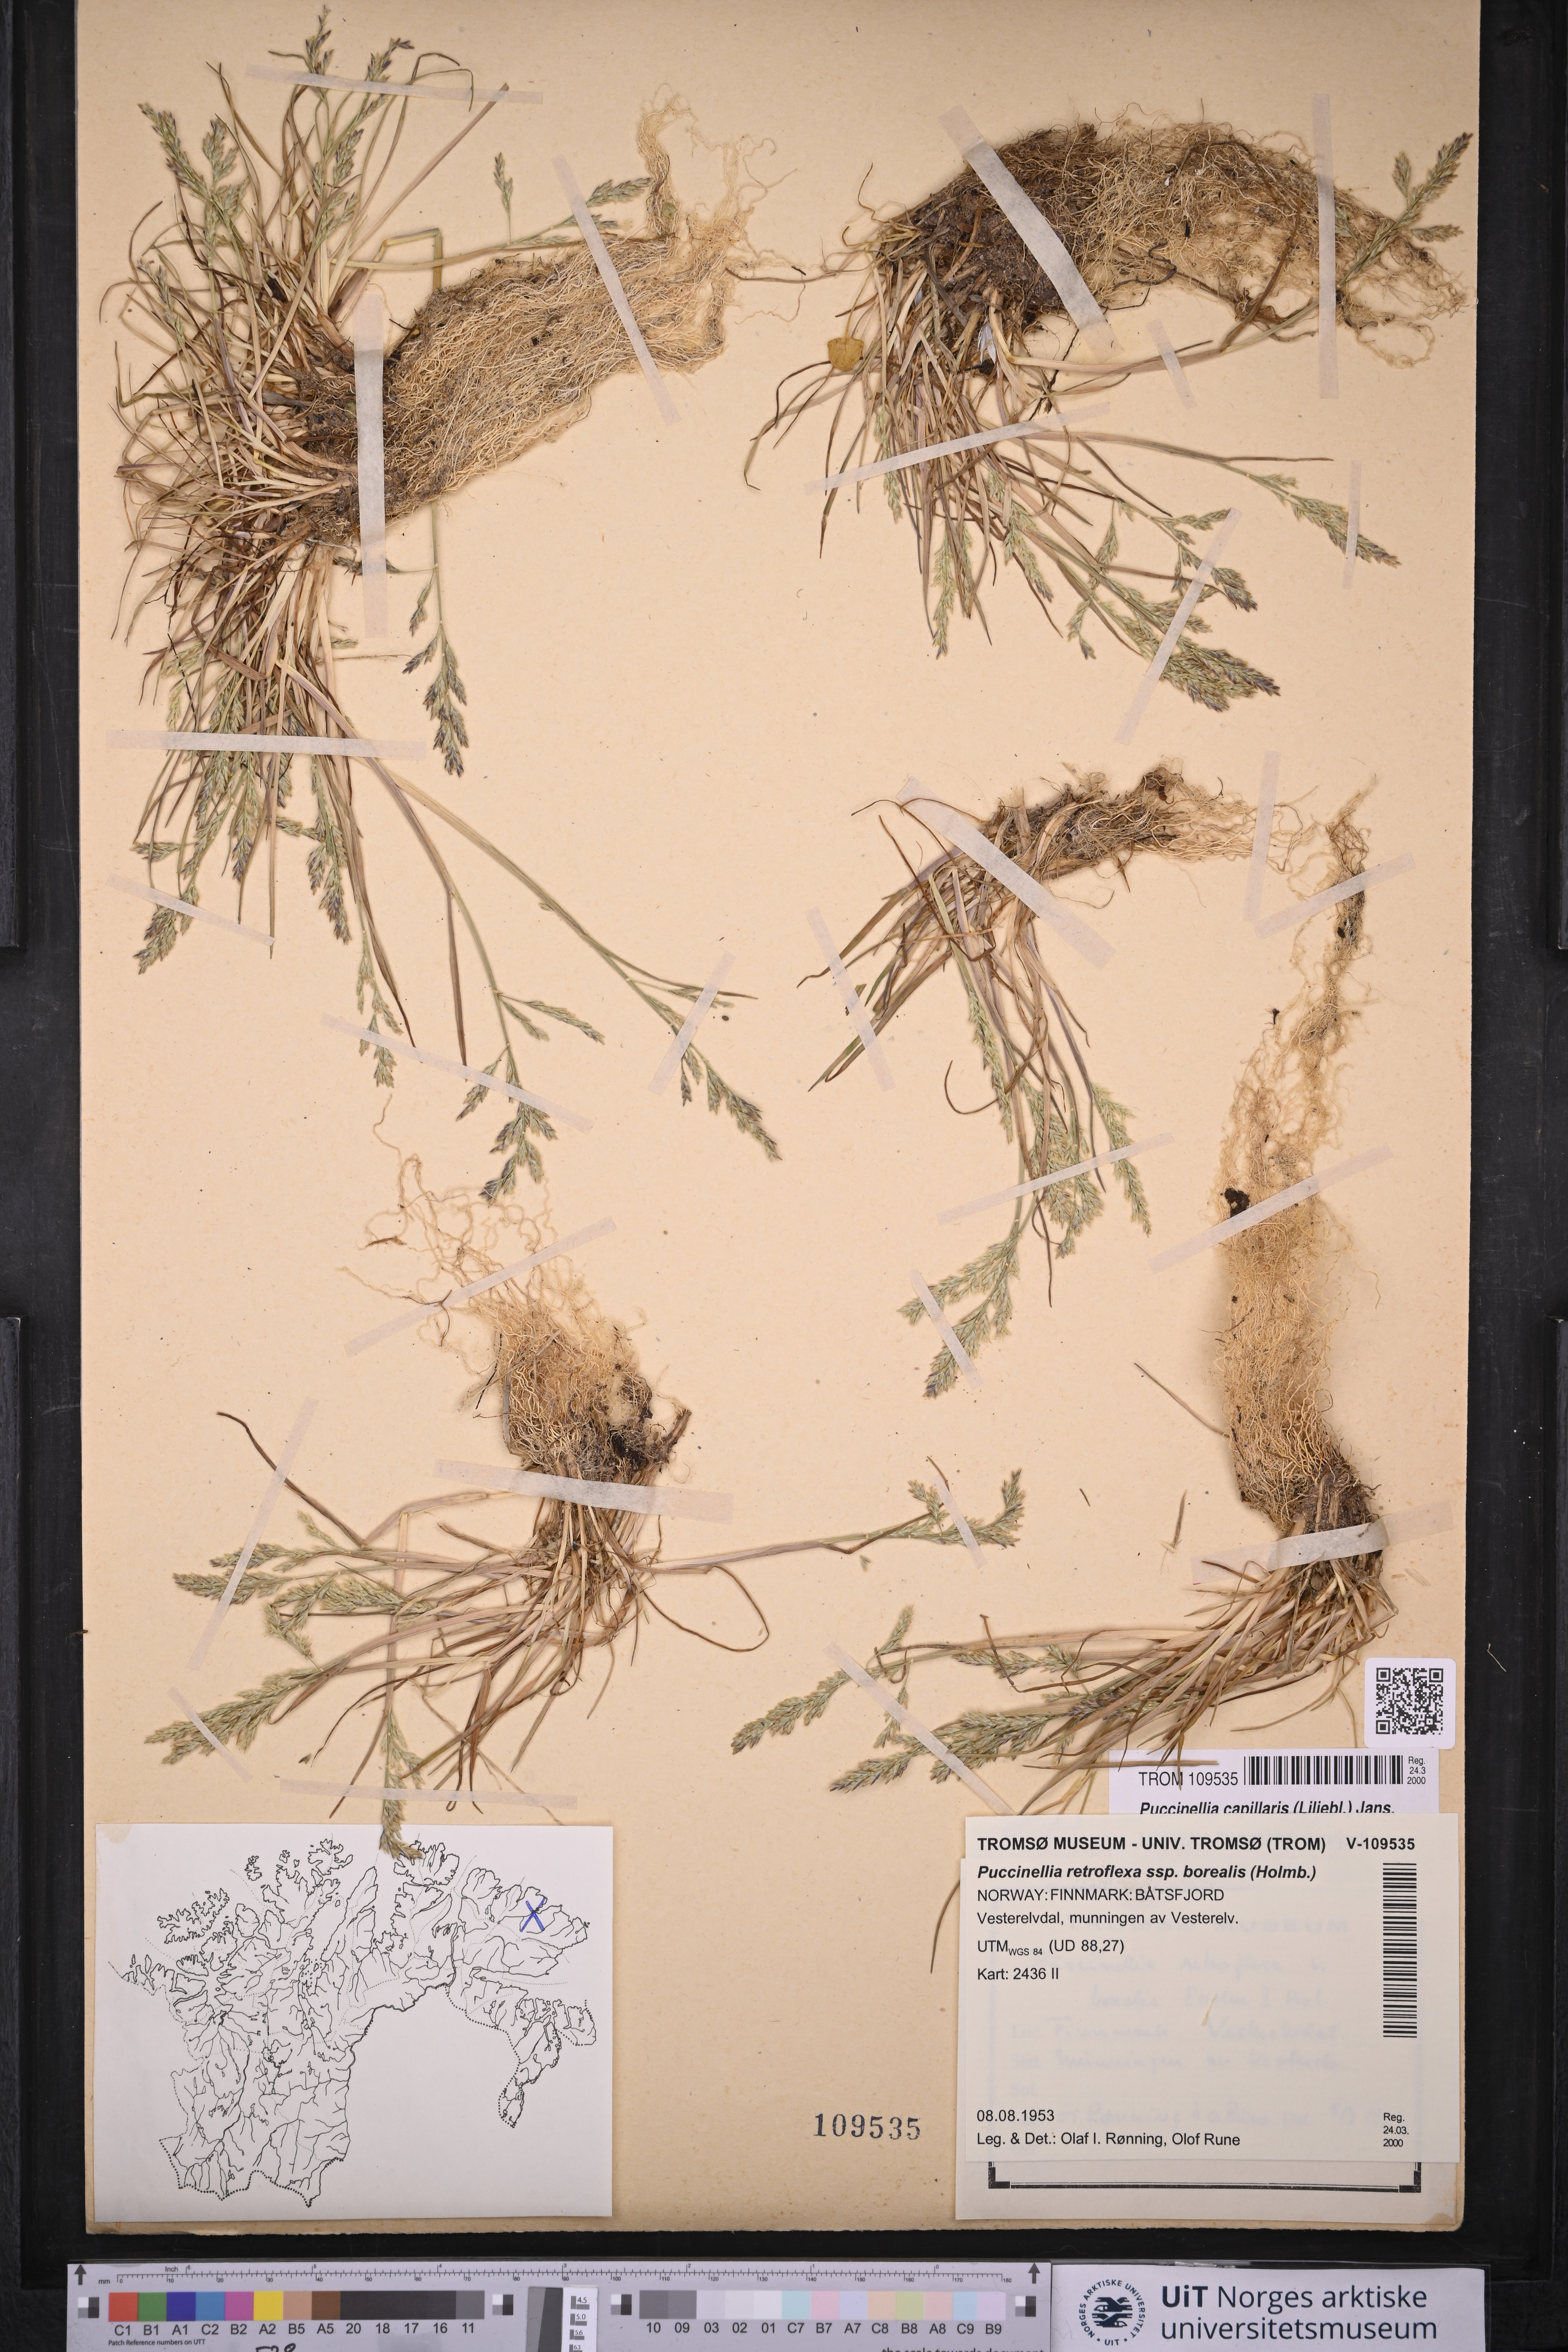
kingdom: Plantae
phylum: Tracheophyta
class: Liliopsida
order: Poales
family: Poaceae
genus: Puccinellia
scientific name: Puccinellia distans
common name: Weeping alkaligrass
